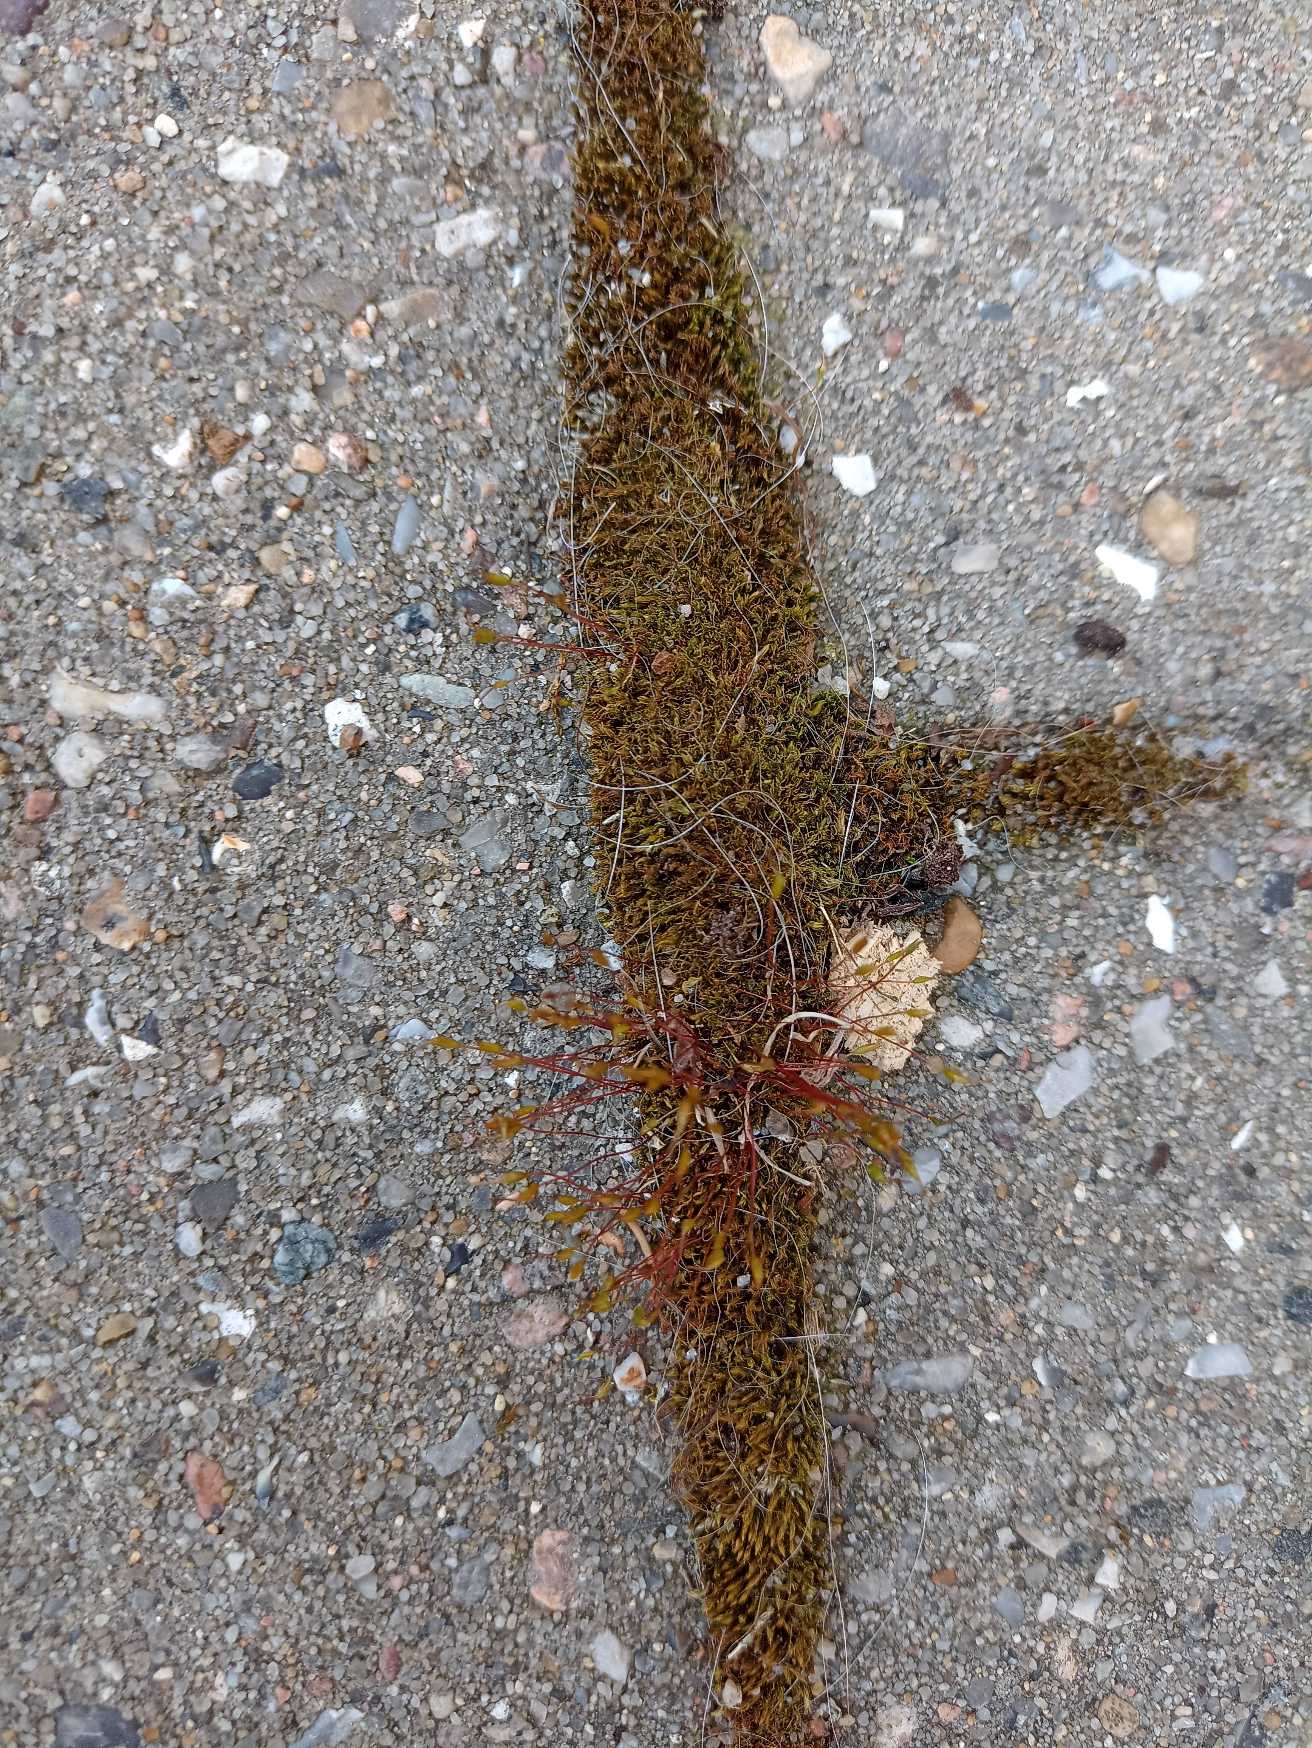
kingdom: Plantae
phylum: Bryophyta
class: Bryopsida
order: Dicranales
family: Ditrichaceae
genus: Ceratodon
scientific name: Ceratodon purpureus
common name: Rød horntand
